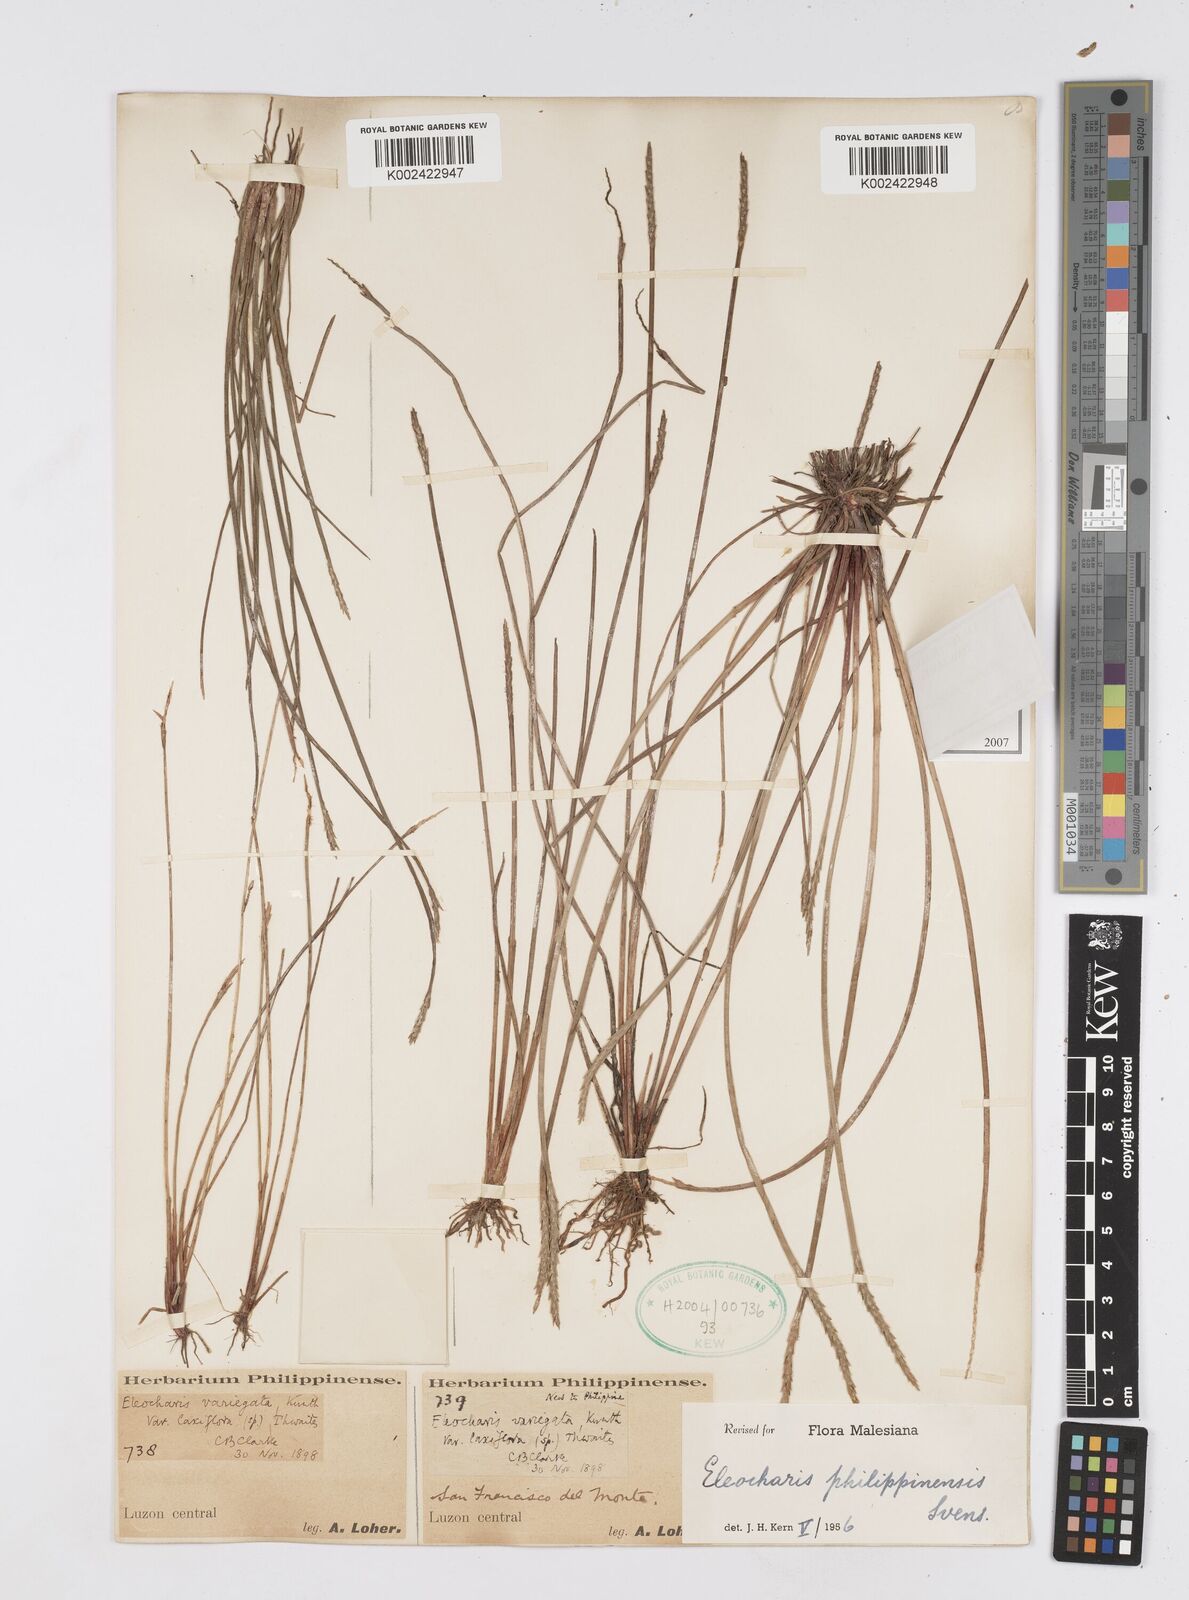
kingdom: Plantae
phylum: Tracheophyta
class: Liliopsida
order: Poales
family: Cyperaceae
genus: Eleocharis
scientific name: Eleocharis philippinensis
